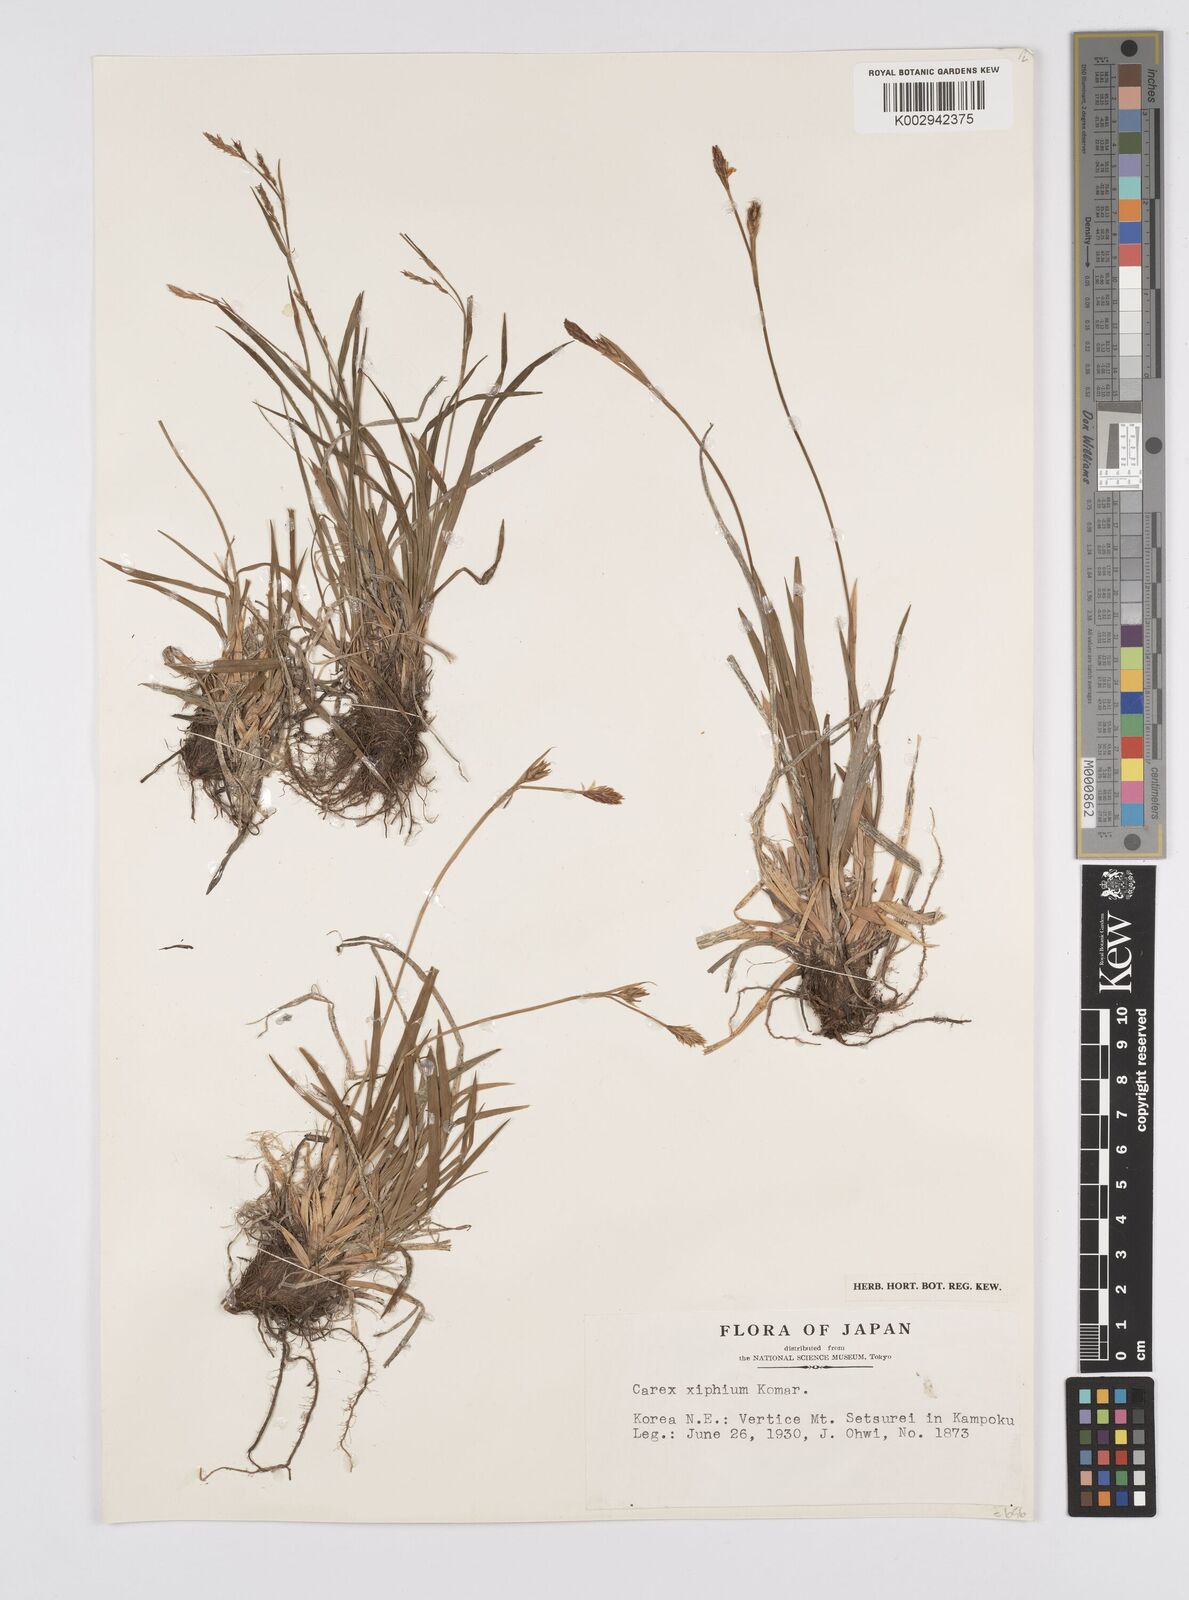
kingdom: Plantae
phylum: Tracheophyta
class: Liliopsida
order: Poales
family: Cyperaceae
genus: Carex
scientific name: Carex xiphium
